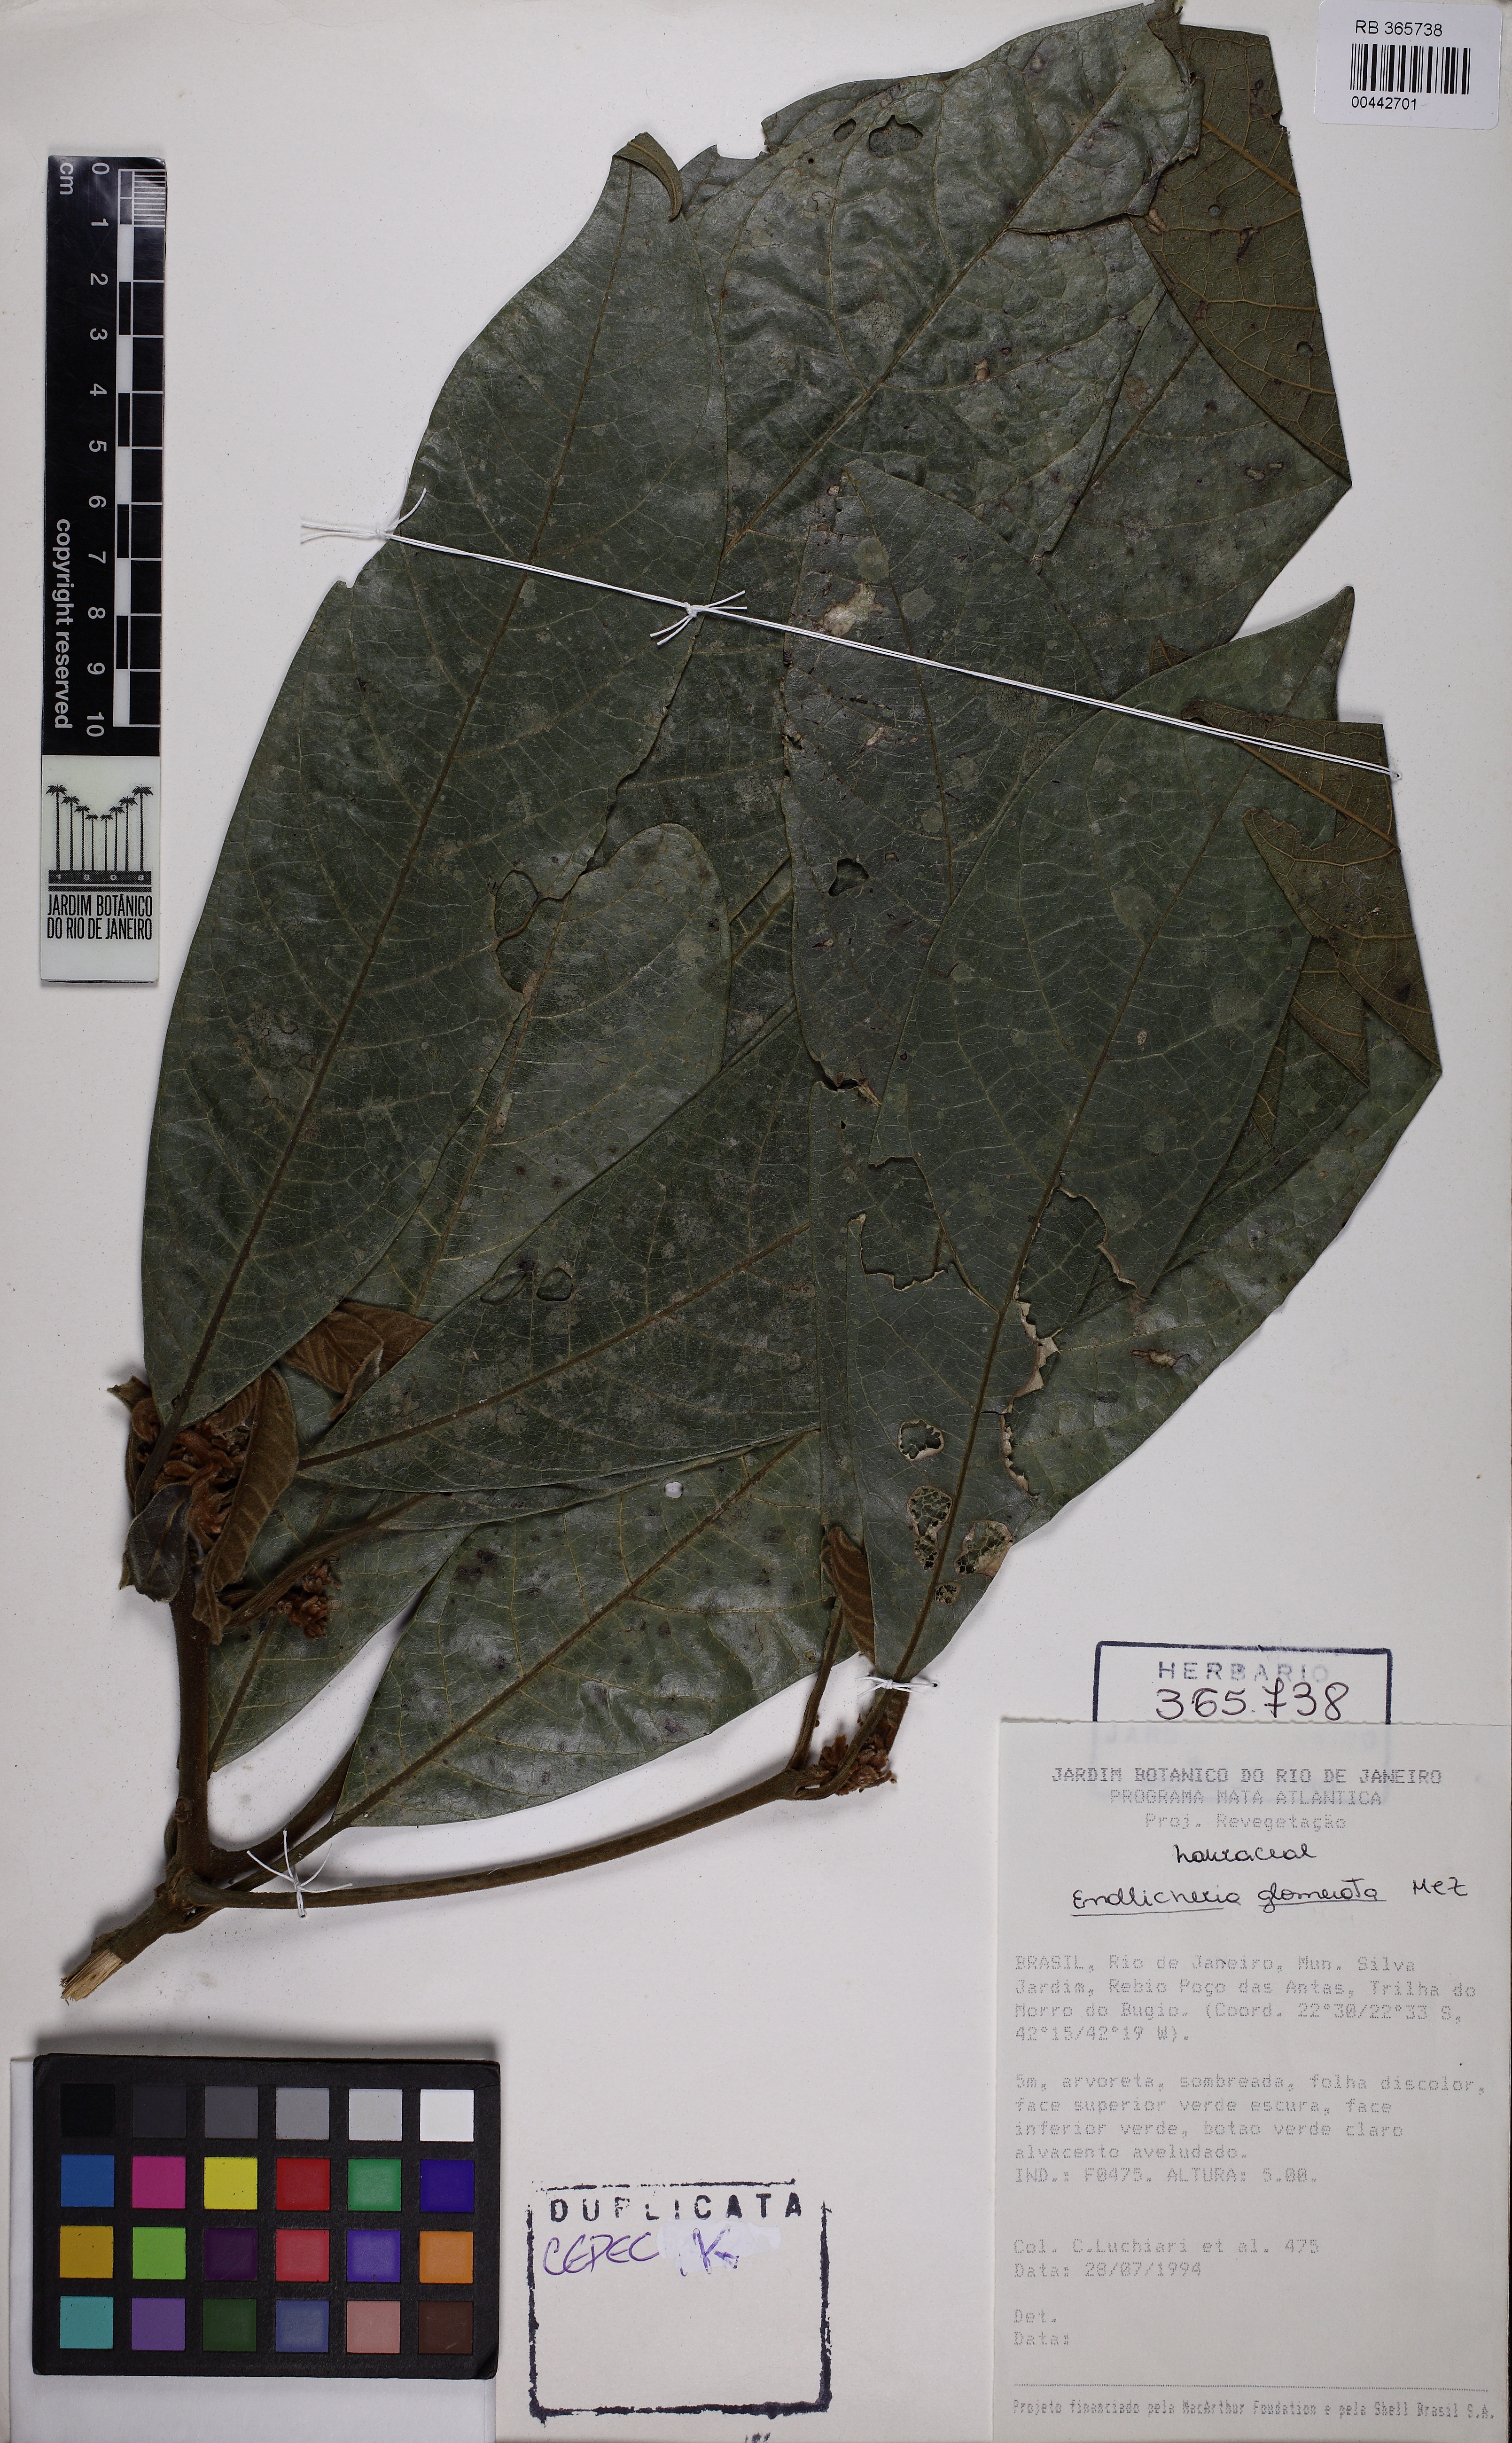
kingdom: Plantae
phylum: Tracheophyta
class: Magnoliopsida
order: Laurales
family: Lauraceae
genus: Endlicheria
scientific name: Endlicheria glomerata
